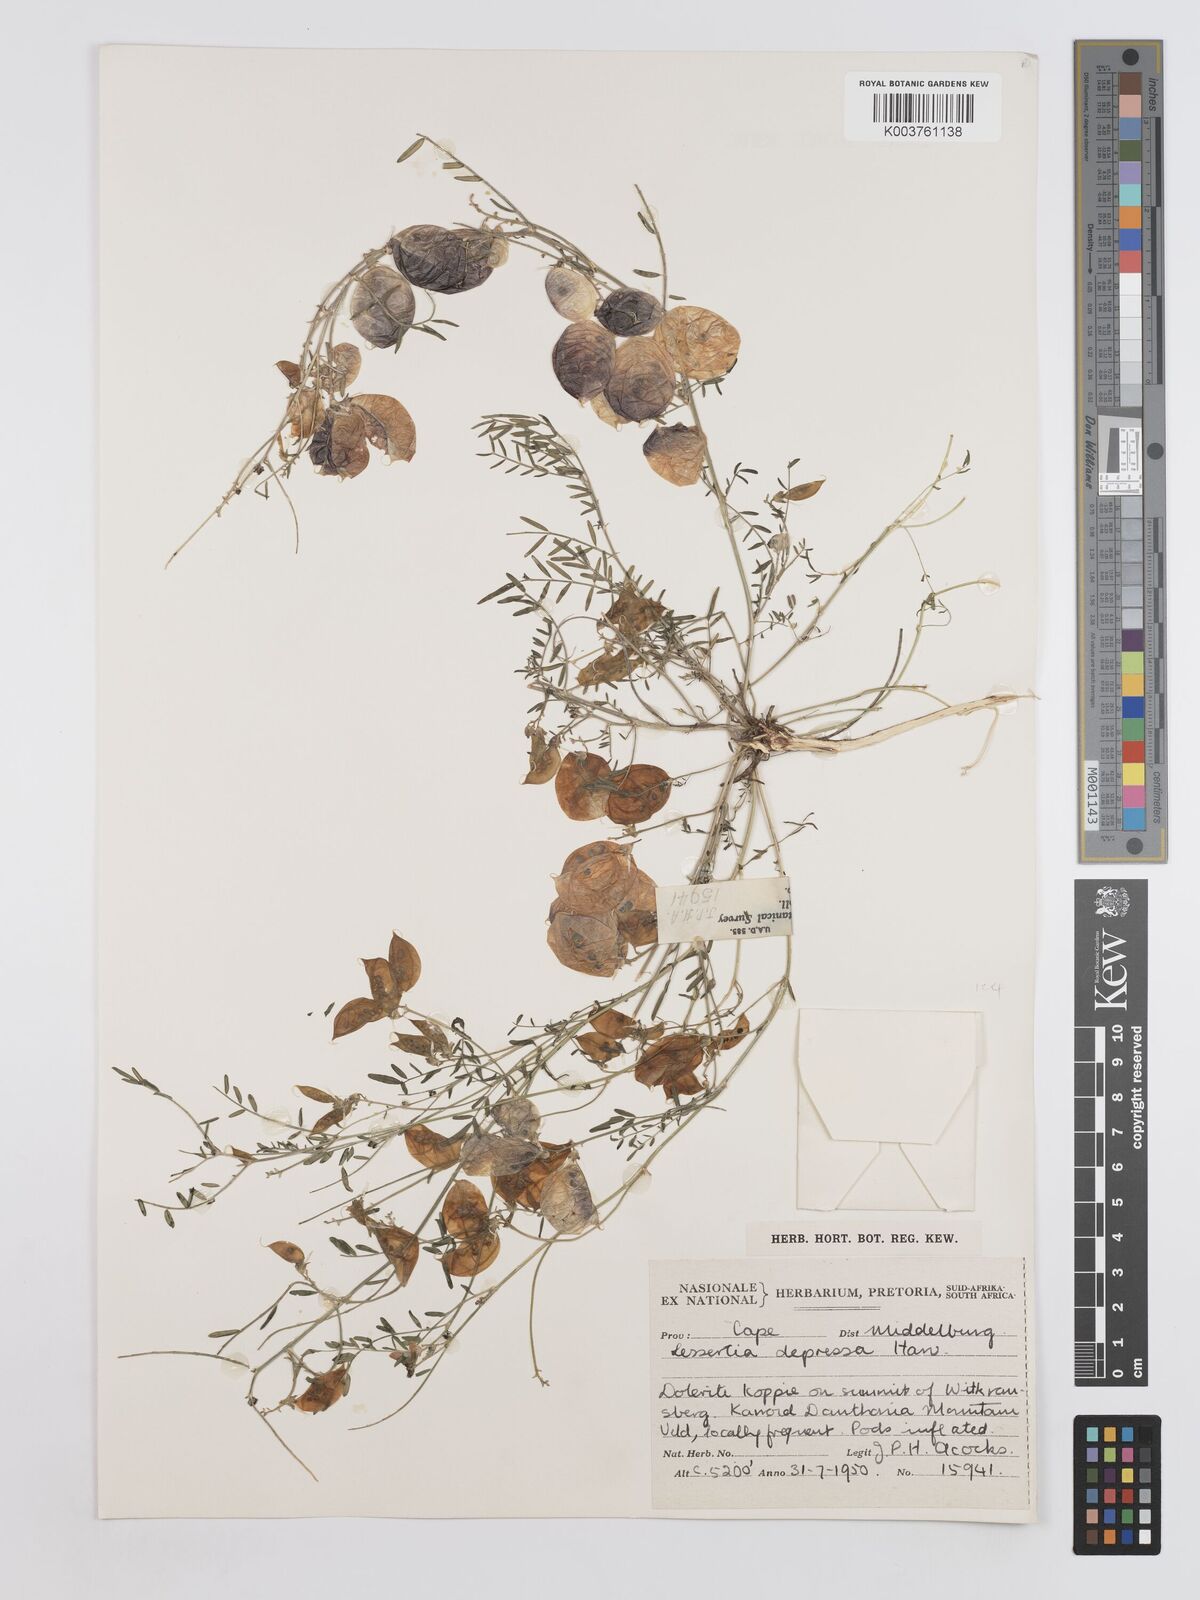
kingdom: Plantae
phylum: Tracheophyta
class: Magnoliopsida
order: Fabales
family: Fabaceae
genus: Lessertia
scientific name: Lessertia depressa
